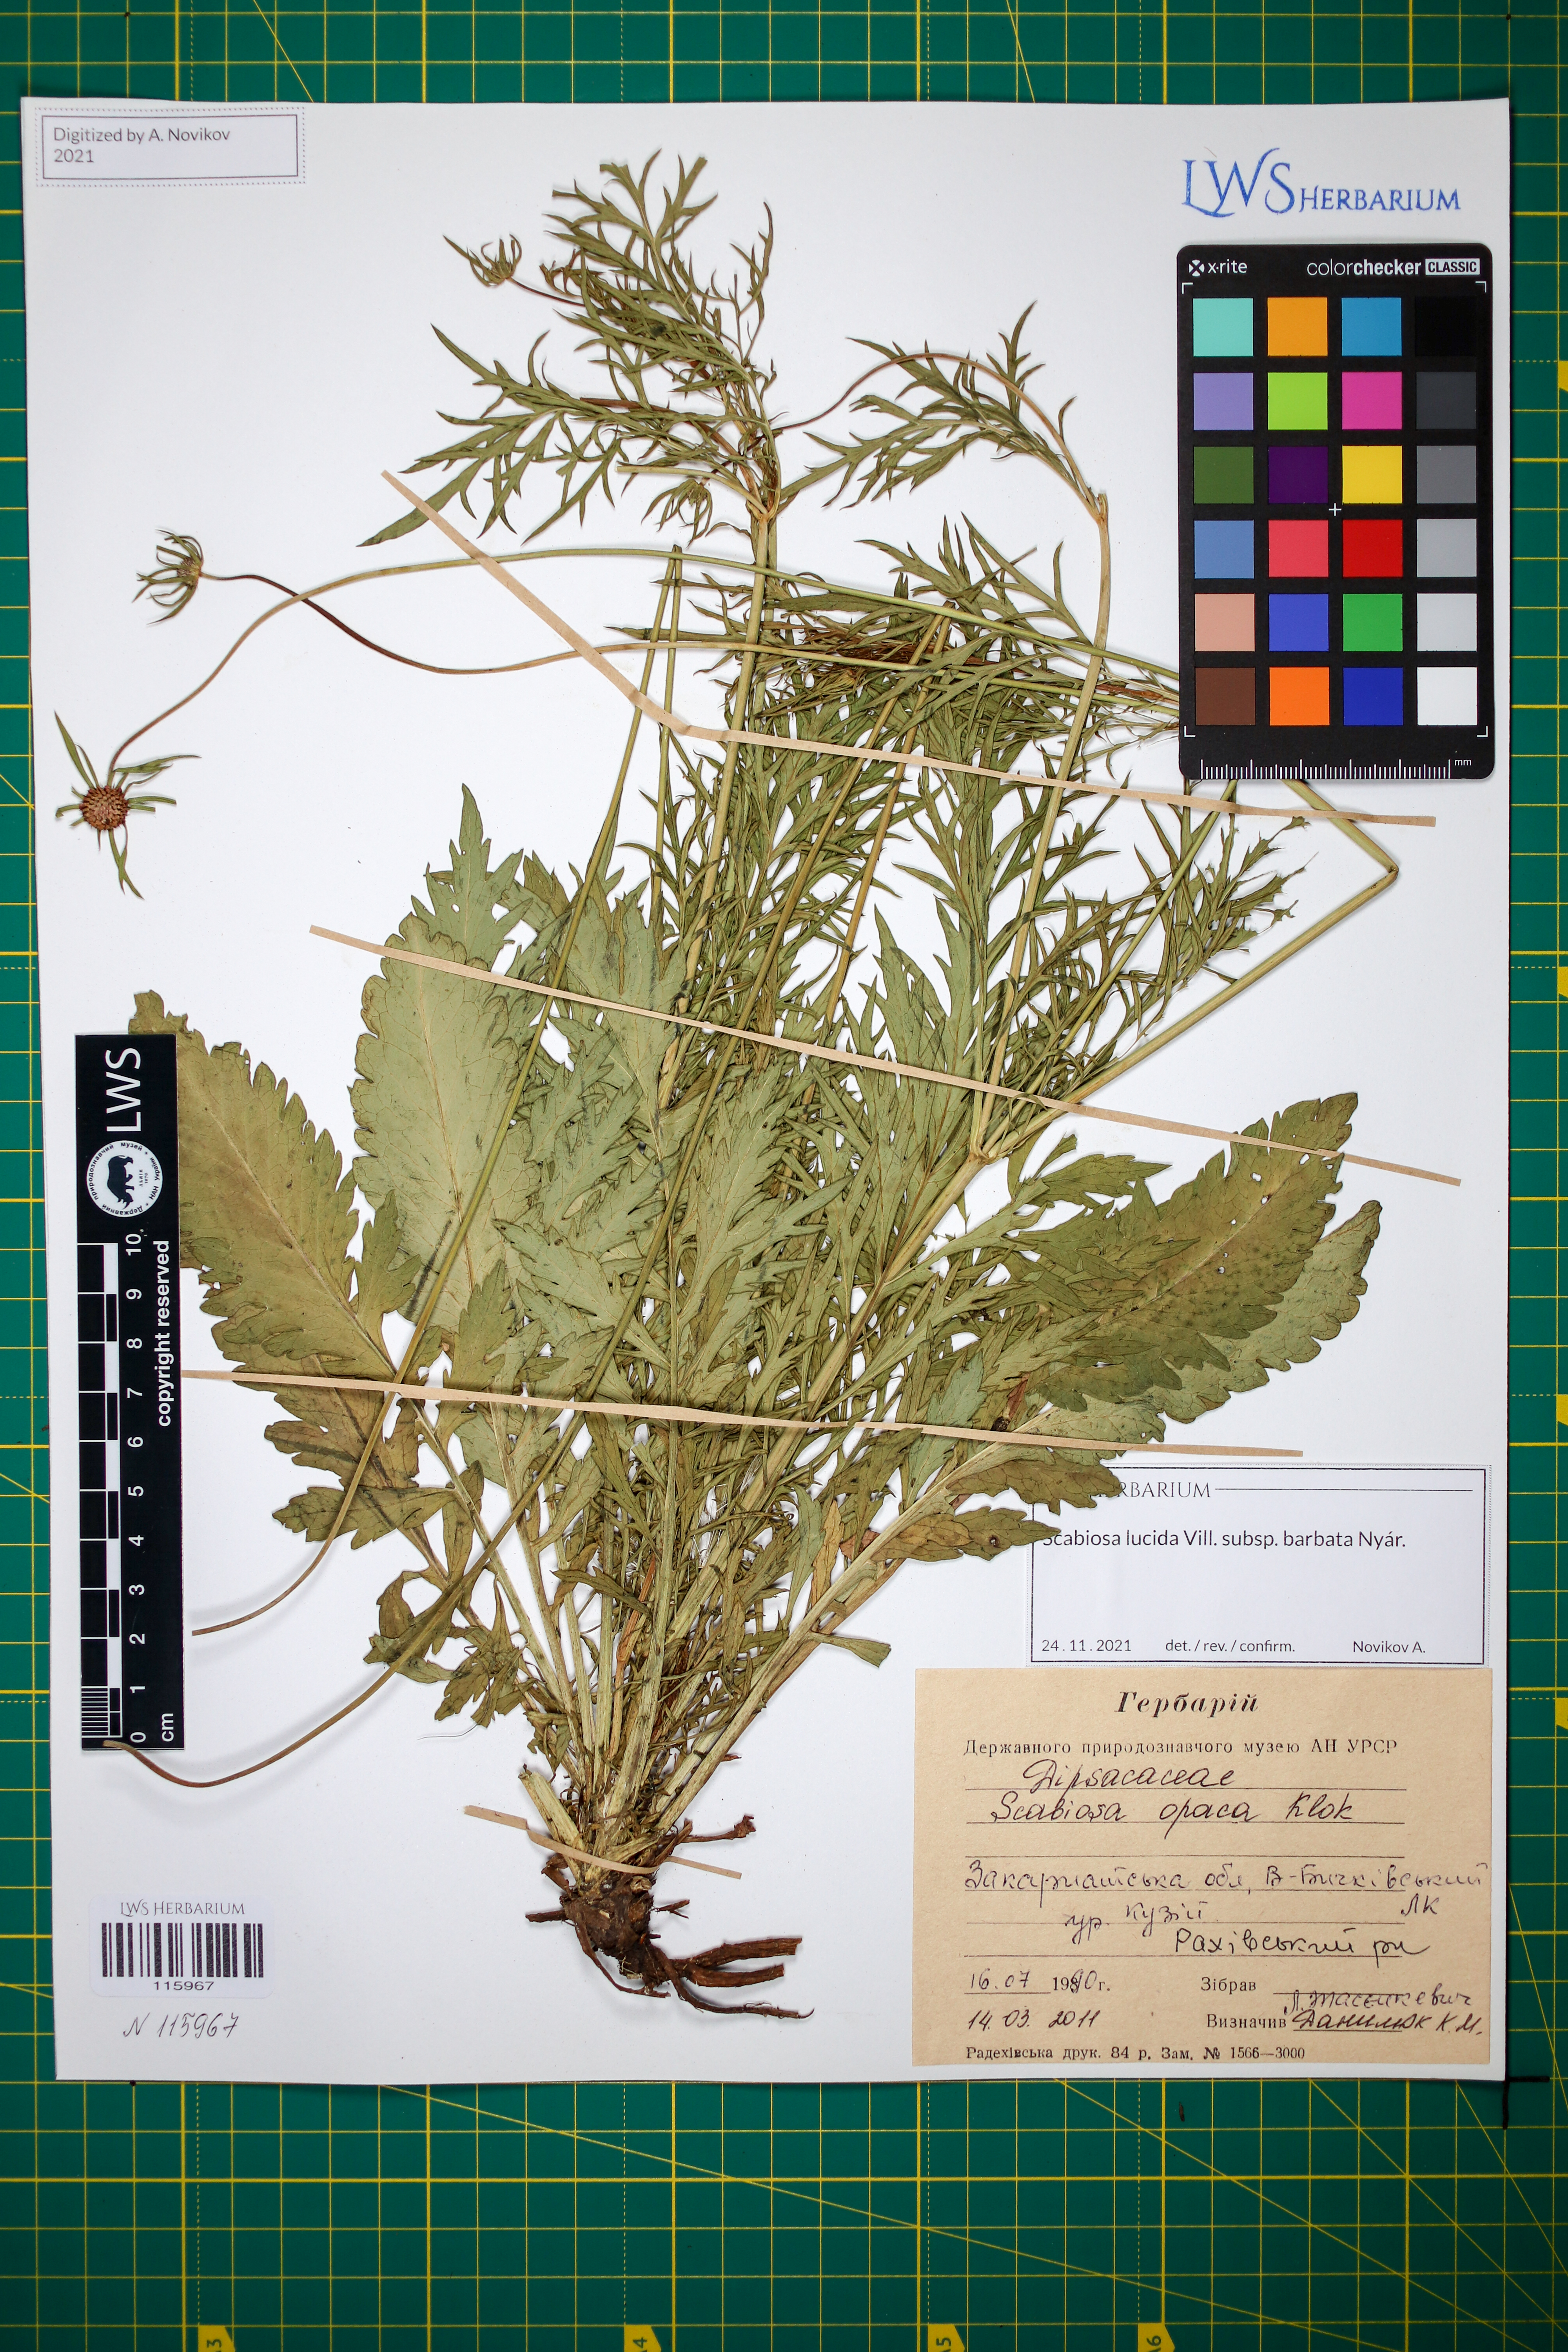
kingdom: Plantae
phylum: Tracheophyta
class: Magnoliopsida
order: Dipsacales
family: Caprifoliaceae
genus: Scabiosa
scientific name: Scabiosa lucida
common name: Shining scabious
